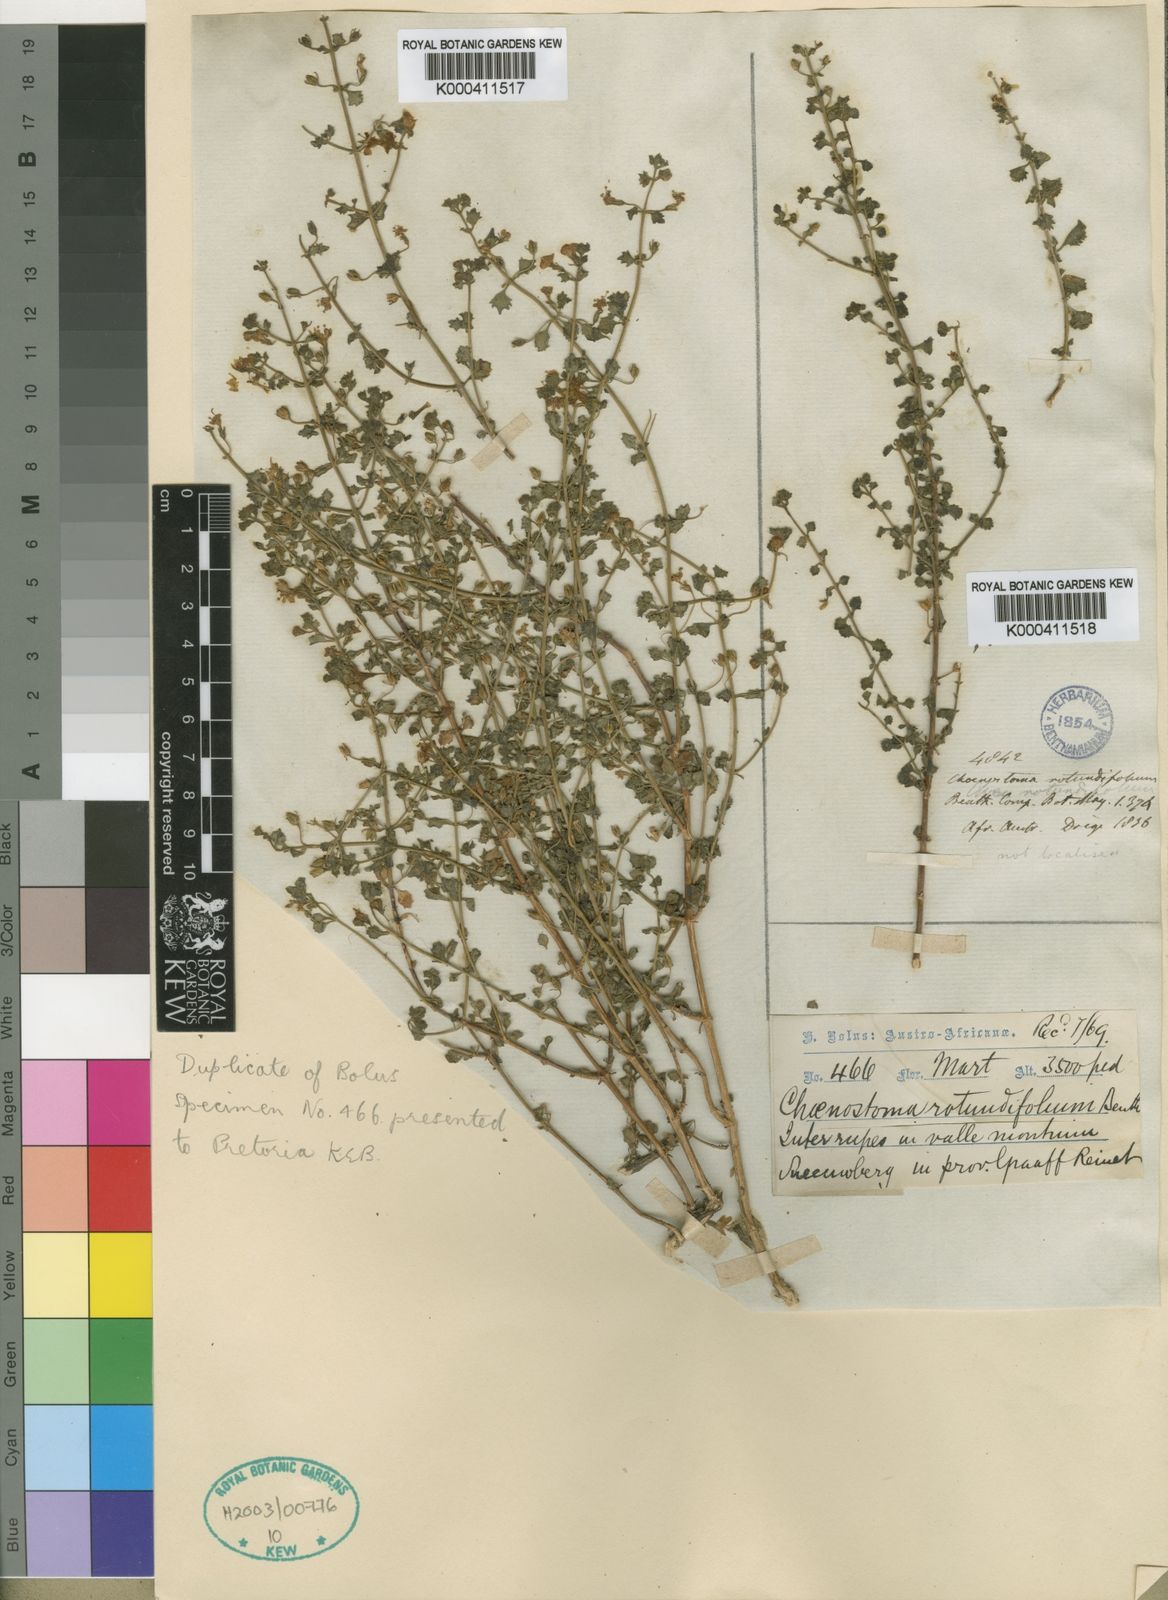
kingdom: Plantae
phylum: Tracheophyta
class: Magnoliopsida
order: Lamiales
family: Scrophulariaceae
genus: Chaenostoma
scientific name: Chaenostoma rotundifolium
